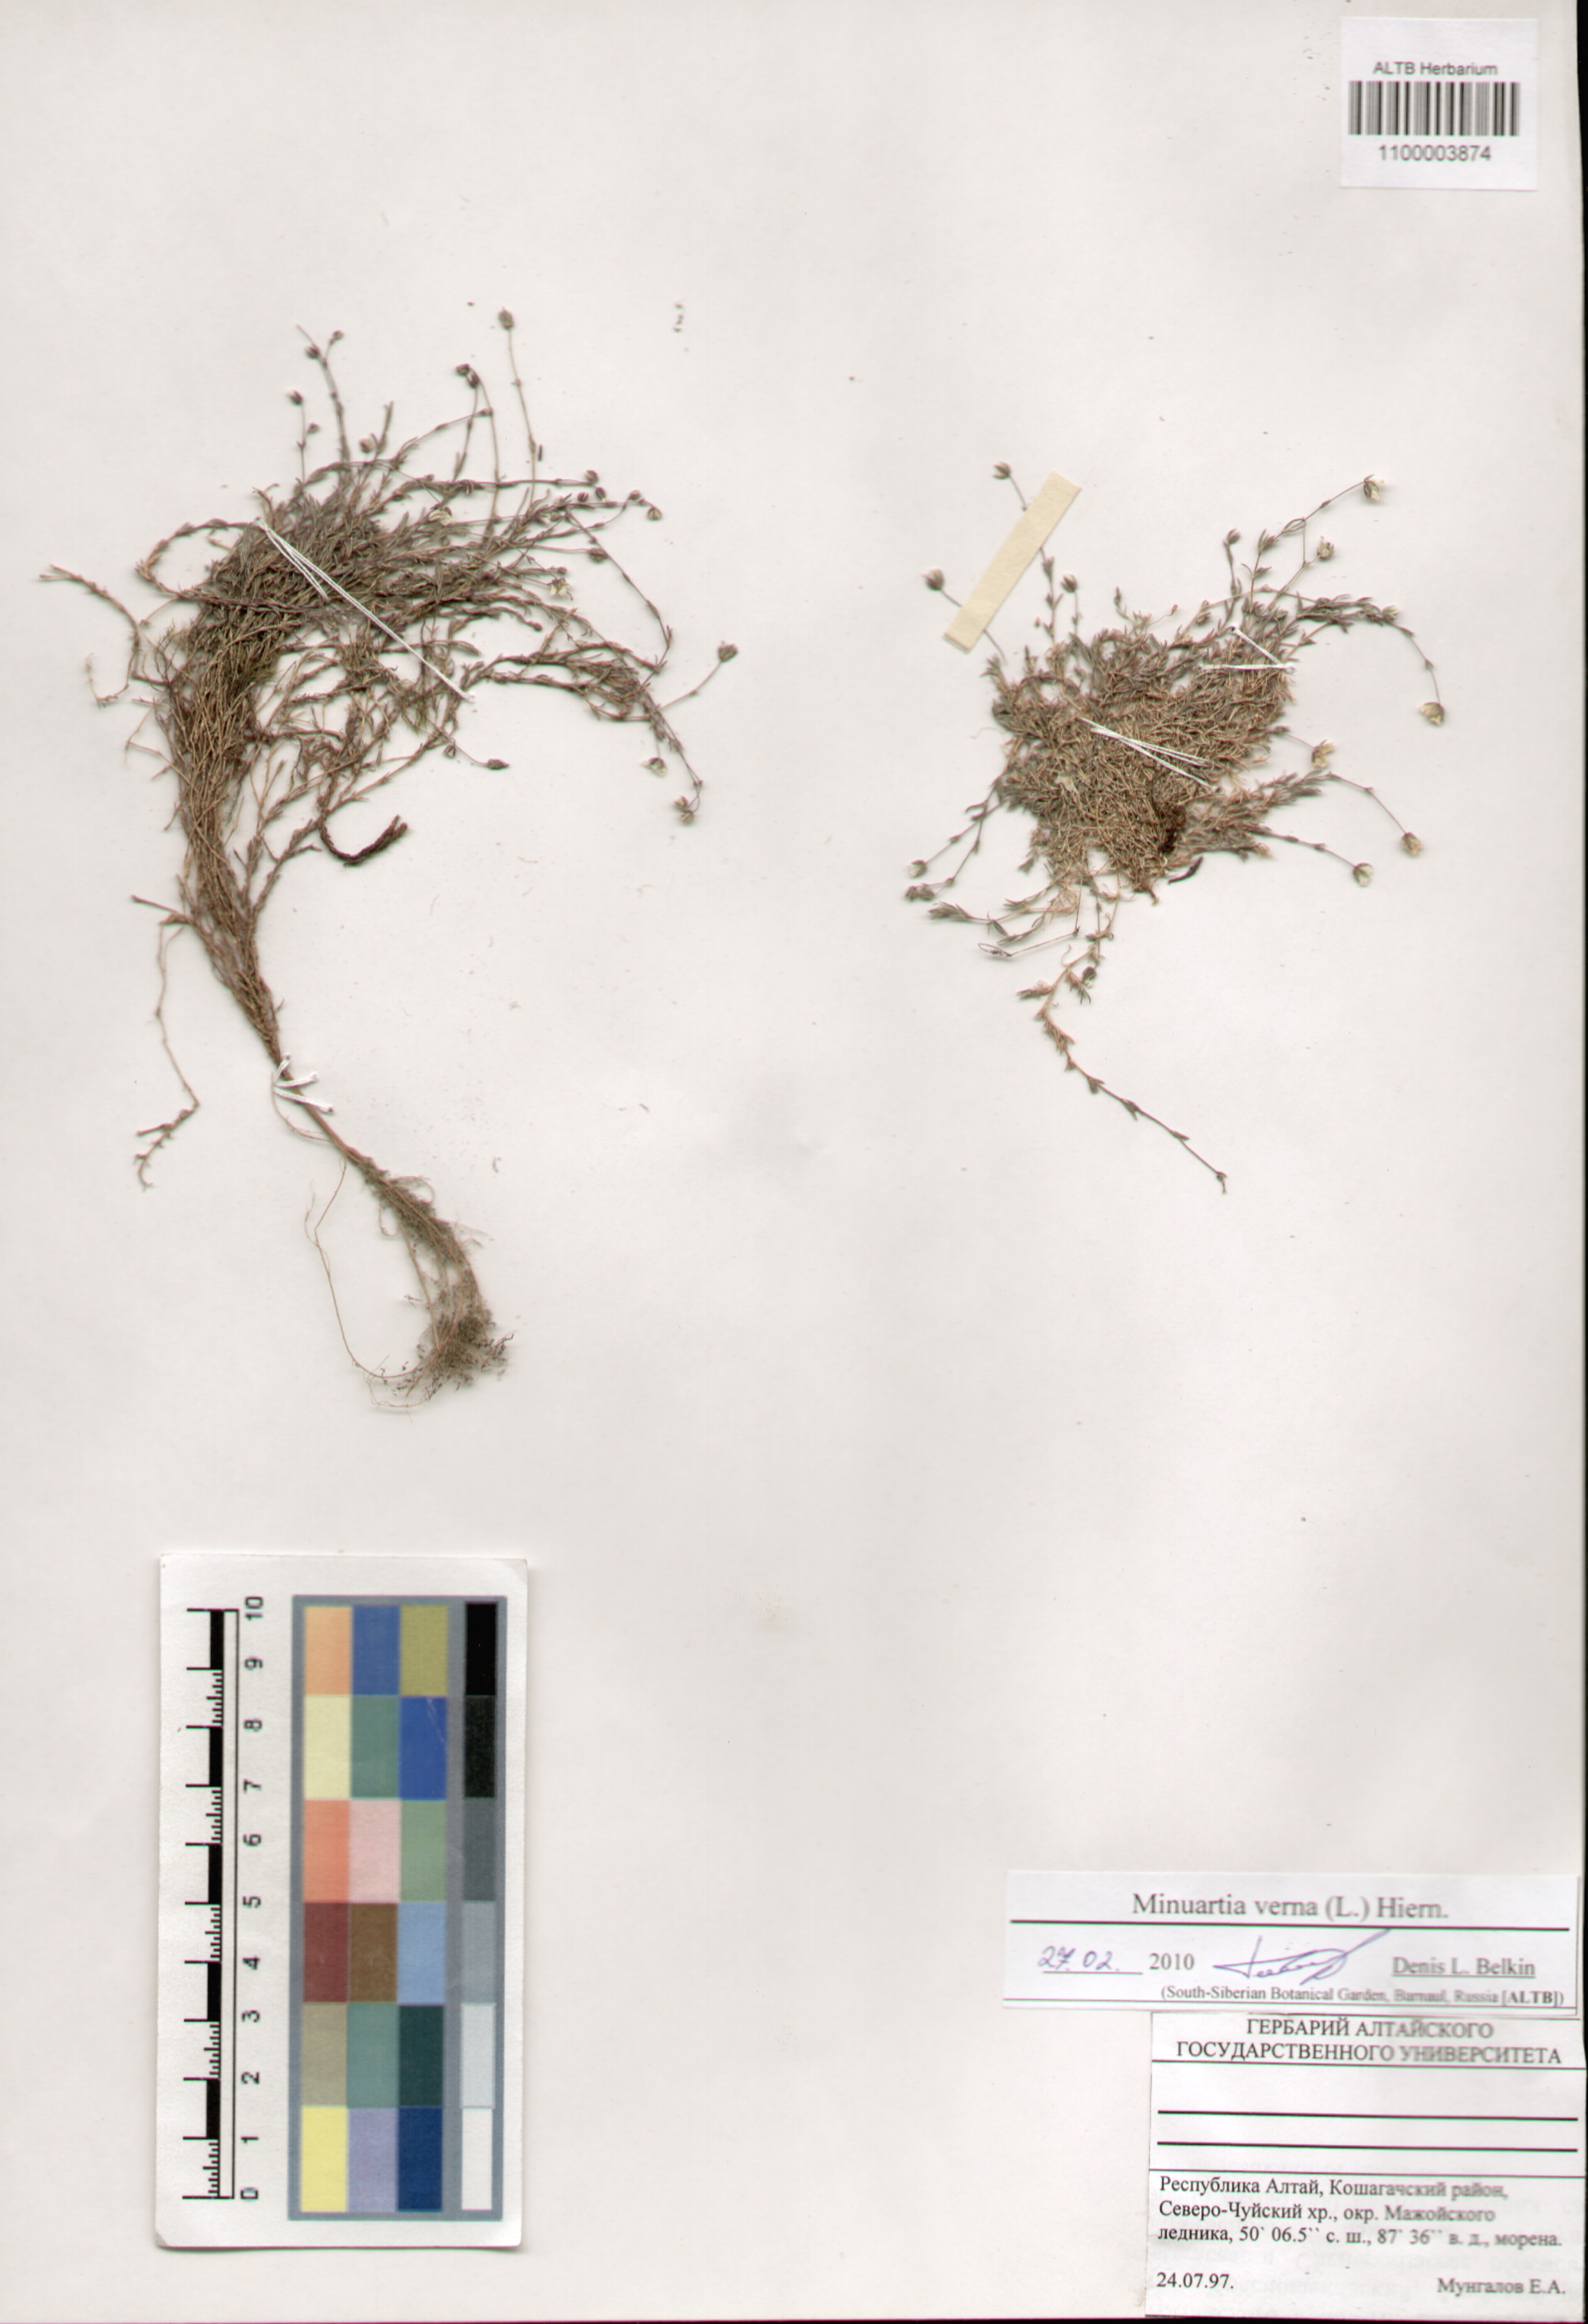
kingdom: Plantae
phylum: Tracheophyta
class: Magnoliopsida
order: Caryophyllales
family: Caryophyllaceae
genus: Sabulina
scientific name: Sabulina verna
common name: Spring sandwort
